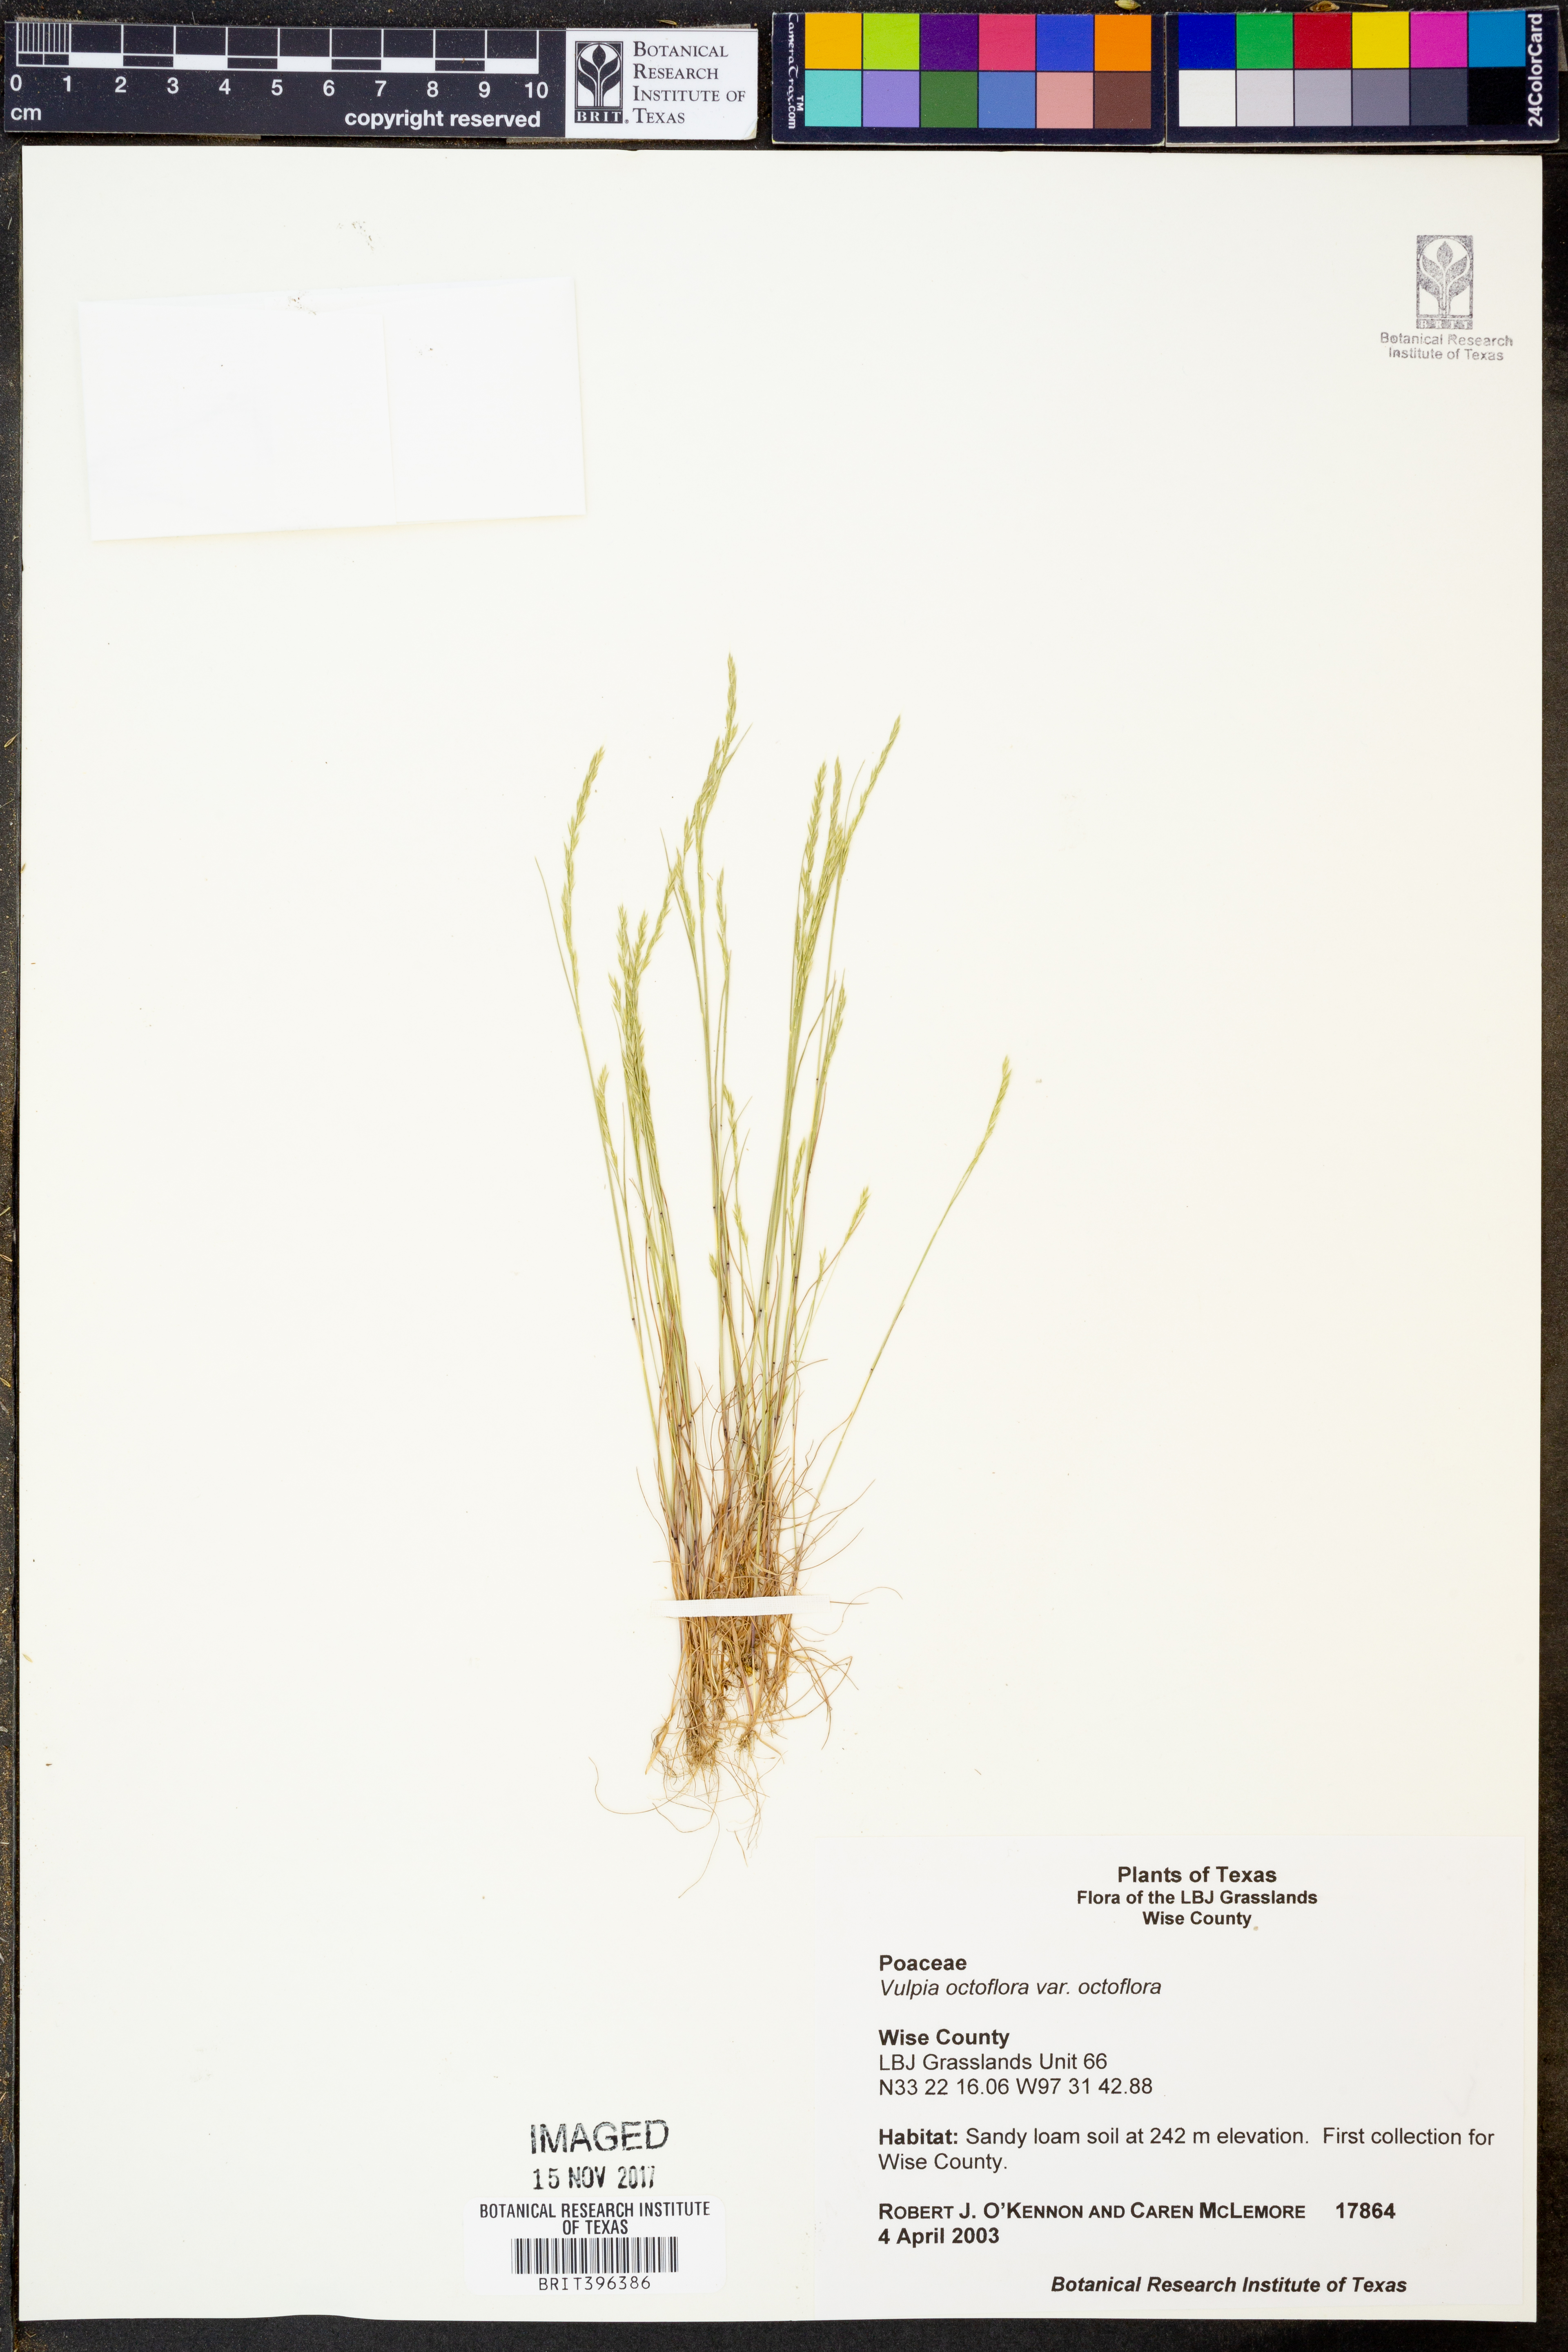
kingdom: Plantae
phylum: Tracheophyta
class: Liliopsida
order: Poales
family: Poaceae
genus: Festuca
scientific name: Festuca octoflora
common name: Sixweeks grass
